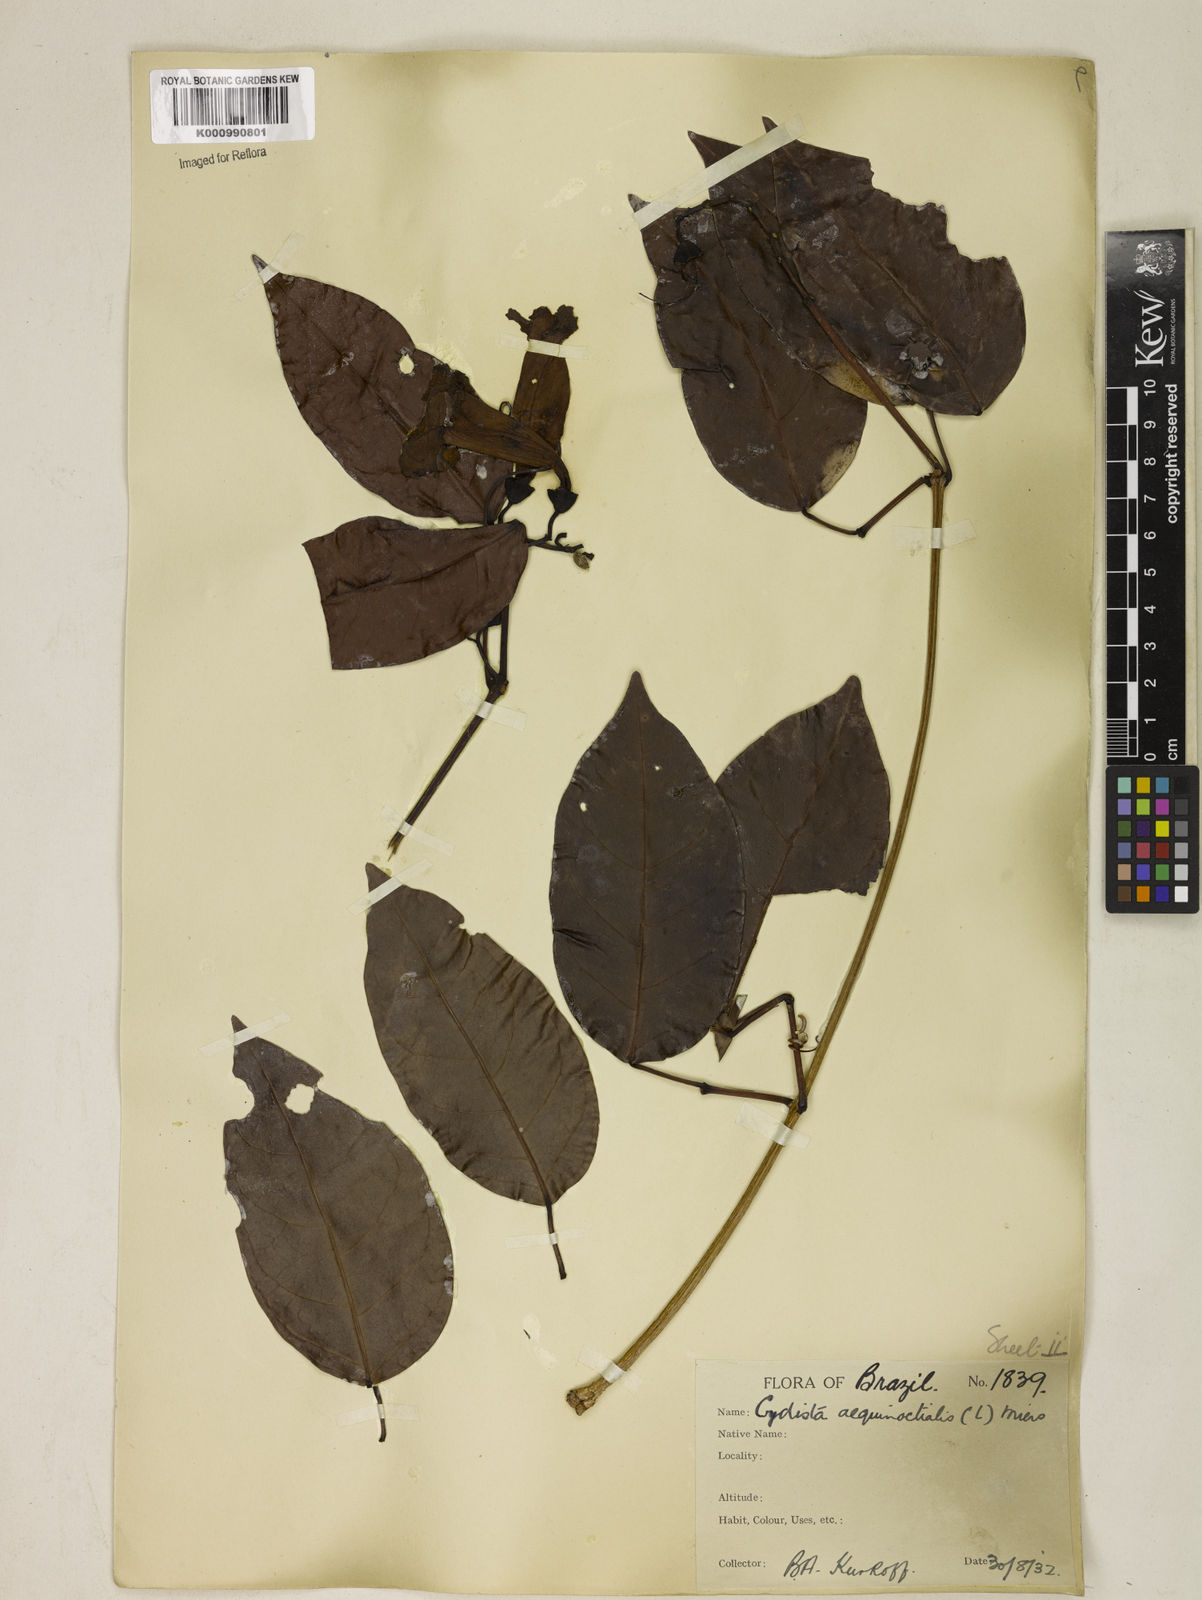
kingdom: Plantae
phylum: Tracheophyta
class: Magnoliopsida
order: Lamiales
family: Bignoniaceae
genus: Bignonia
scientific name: Bignonia aequinoctialis
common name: Garlicvine
